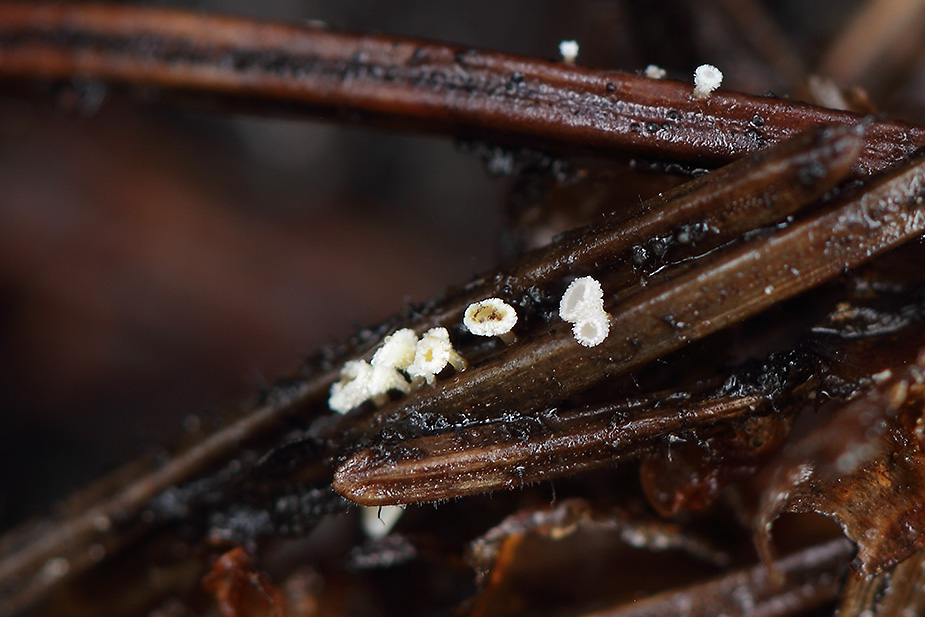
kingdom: Fungi
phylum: Ascomycota
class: Leotiomycetes
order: Helotiales
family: Lachnaceae
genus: Lachnellula
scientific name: Lachnellula pulverulenta
